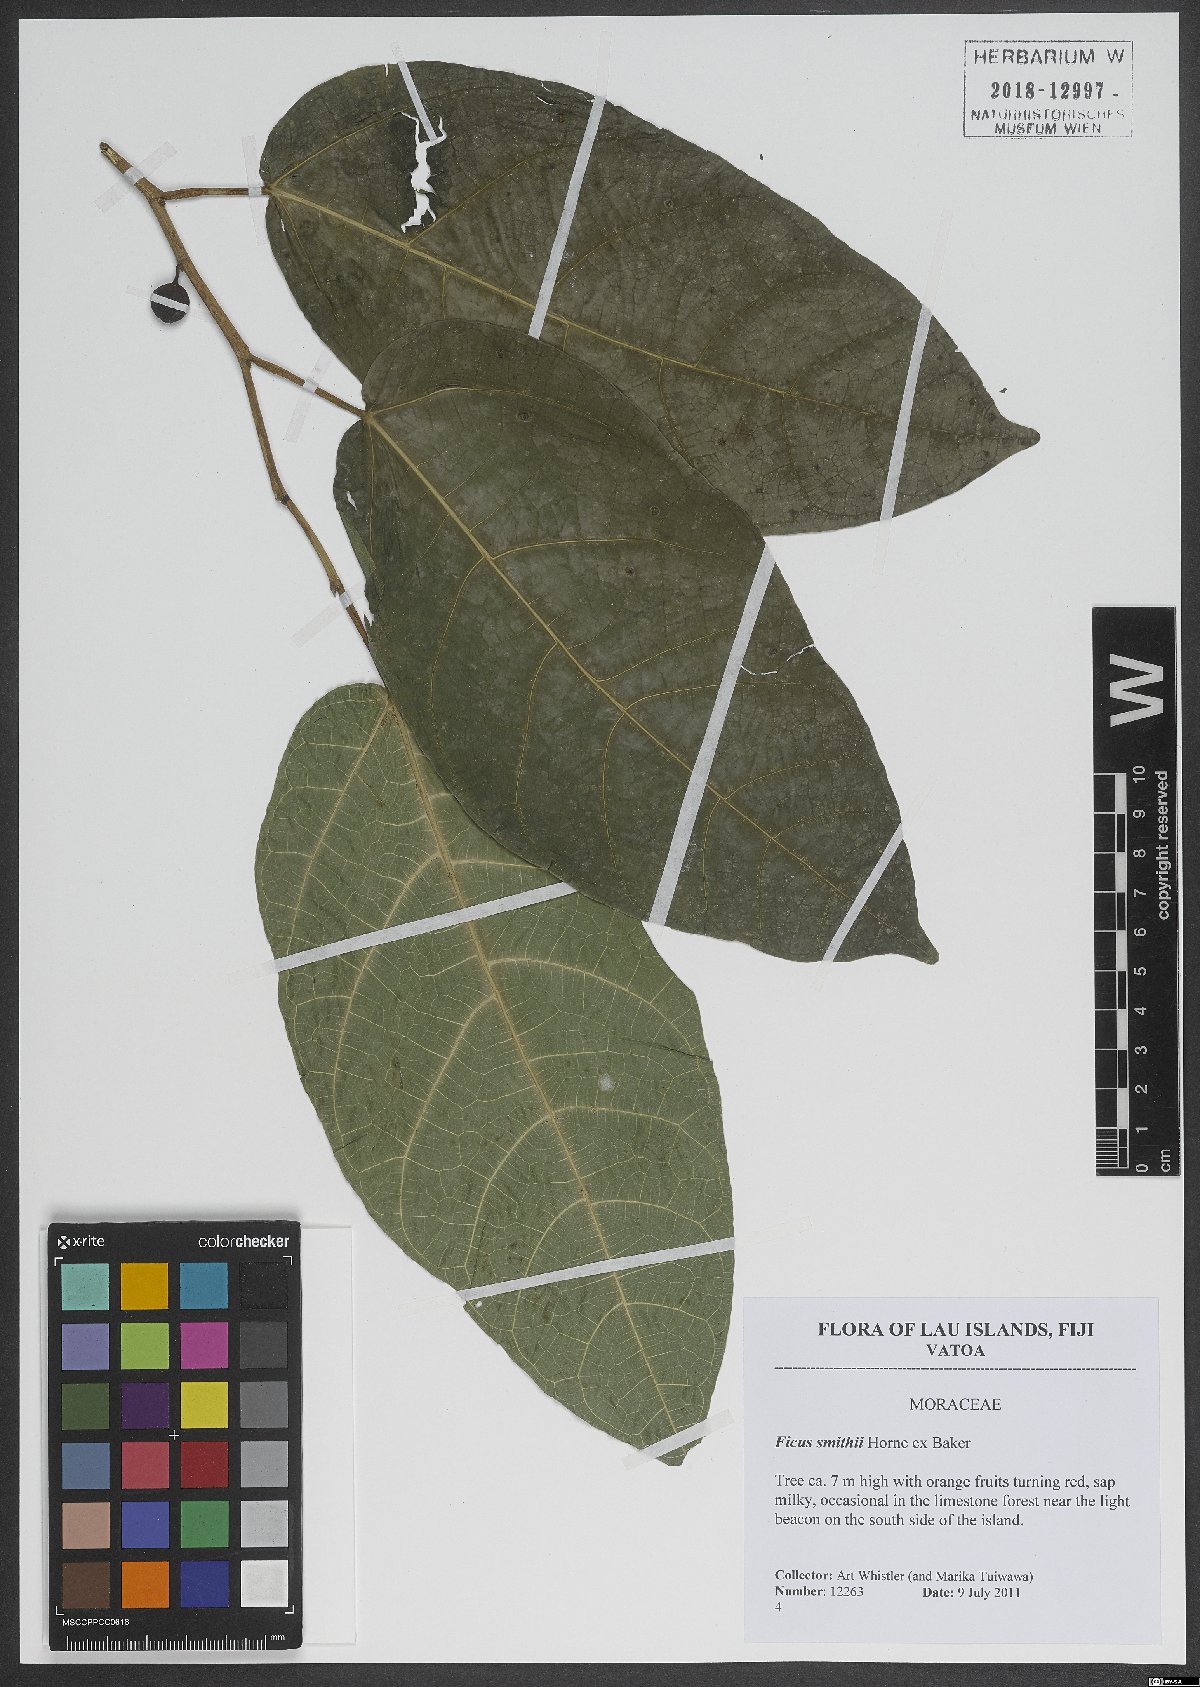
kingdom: Plantae
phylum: Tracheophyta
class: Magnoliopsida
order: Rosales
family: Moraceae
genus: Ficus
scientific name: Ficus smithii
